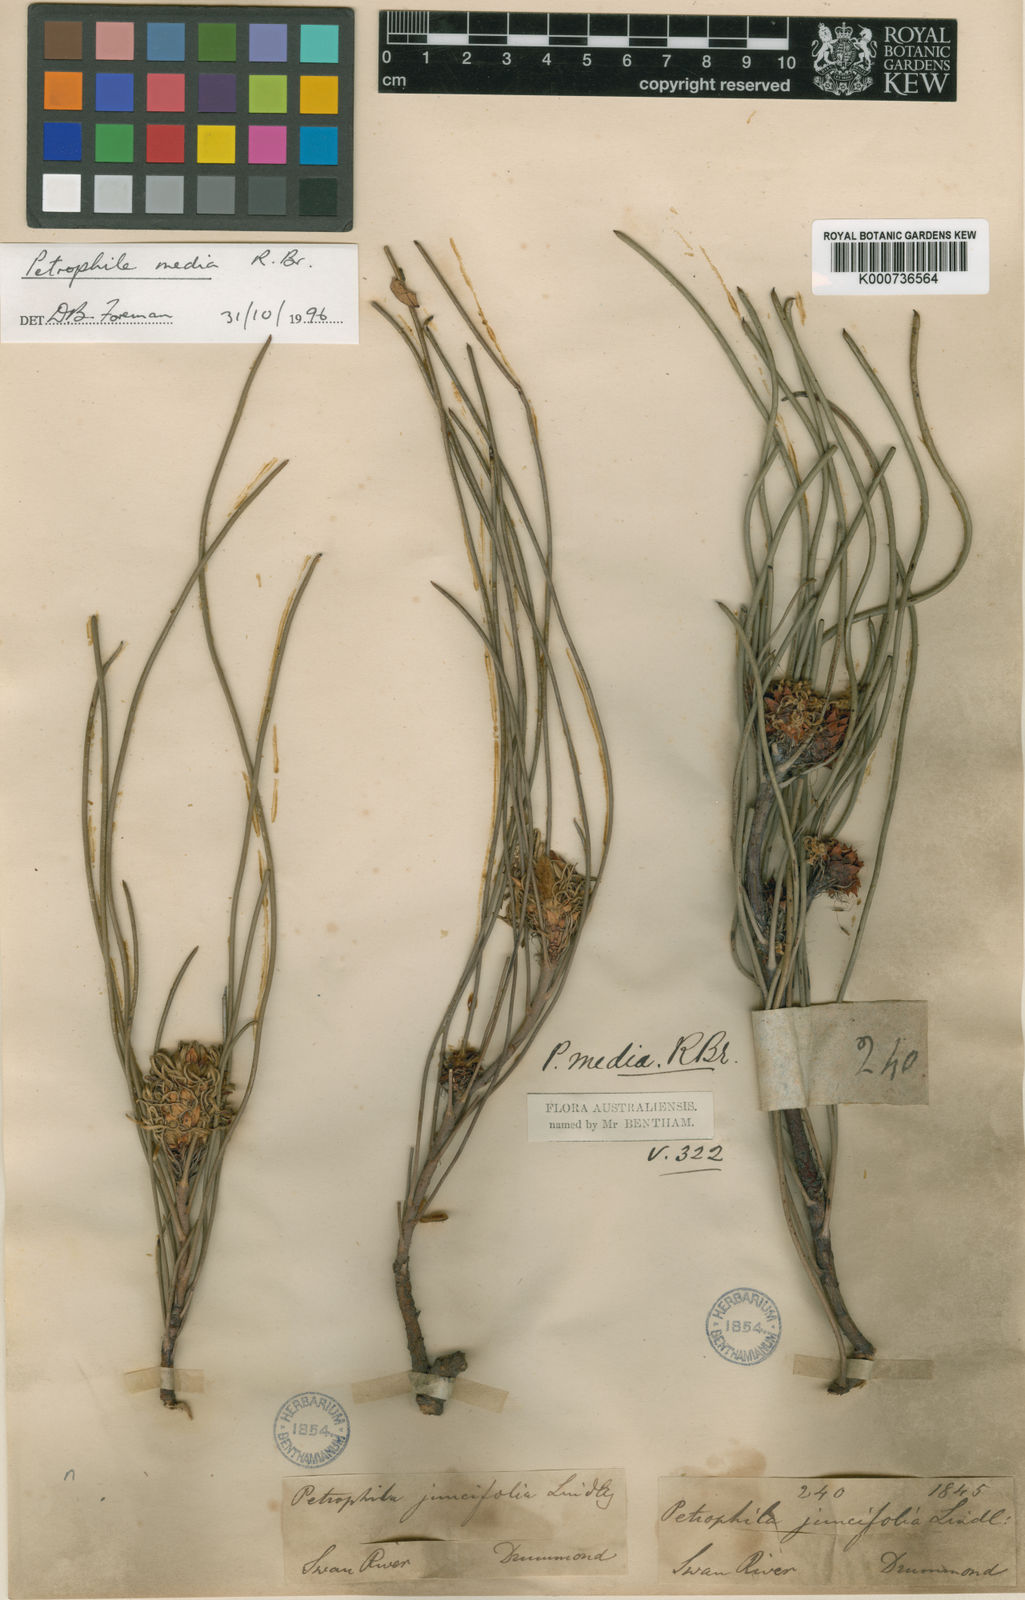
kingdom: Plantae
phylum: Tracheophyta
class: Magnoliopsida
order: Proteales
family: Proteaceae
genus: Petrophile
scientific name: Petrophile media
